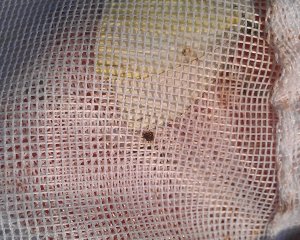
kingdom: Animalia
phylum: Arthropoda
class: Insecta
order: Lepidoptera
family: Pieridae
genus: Pieris
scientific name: Pieris oleracea
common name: Mustard White
